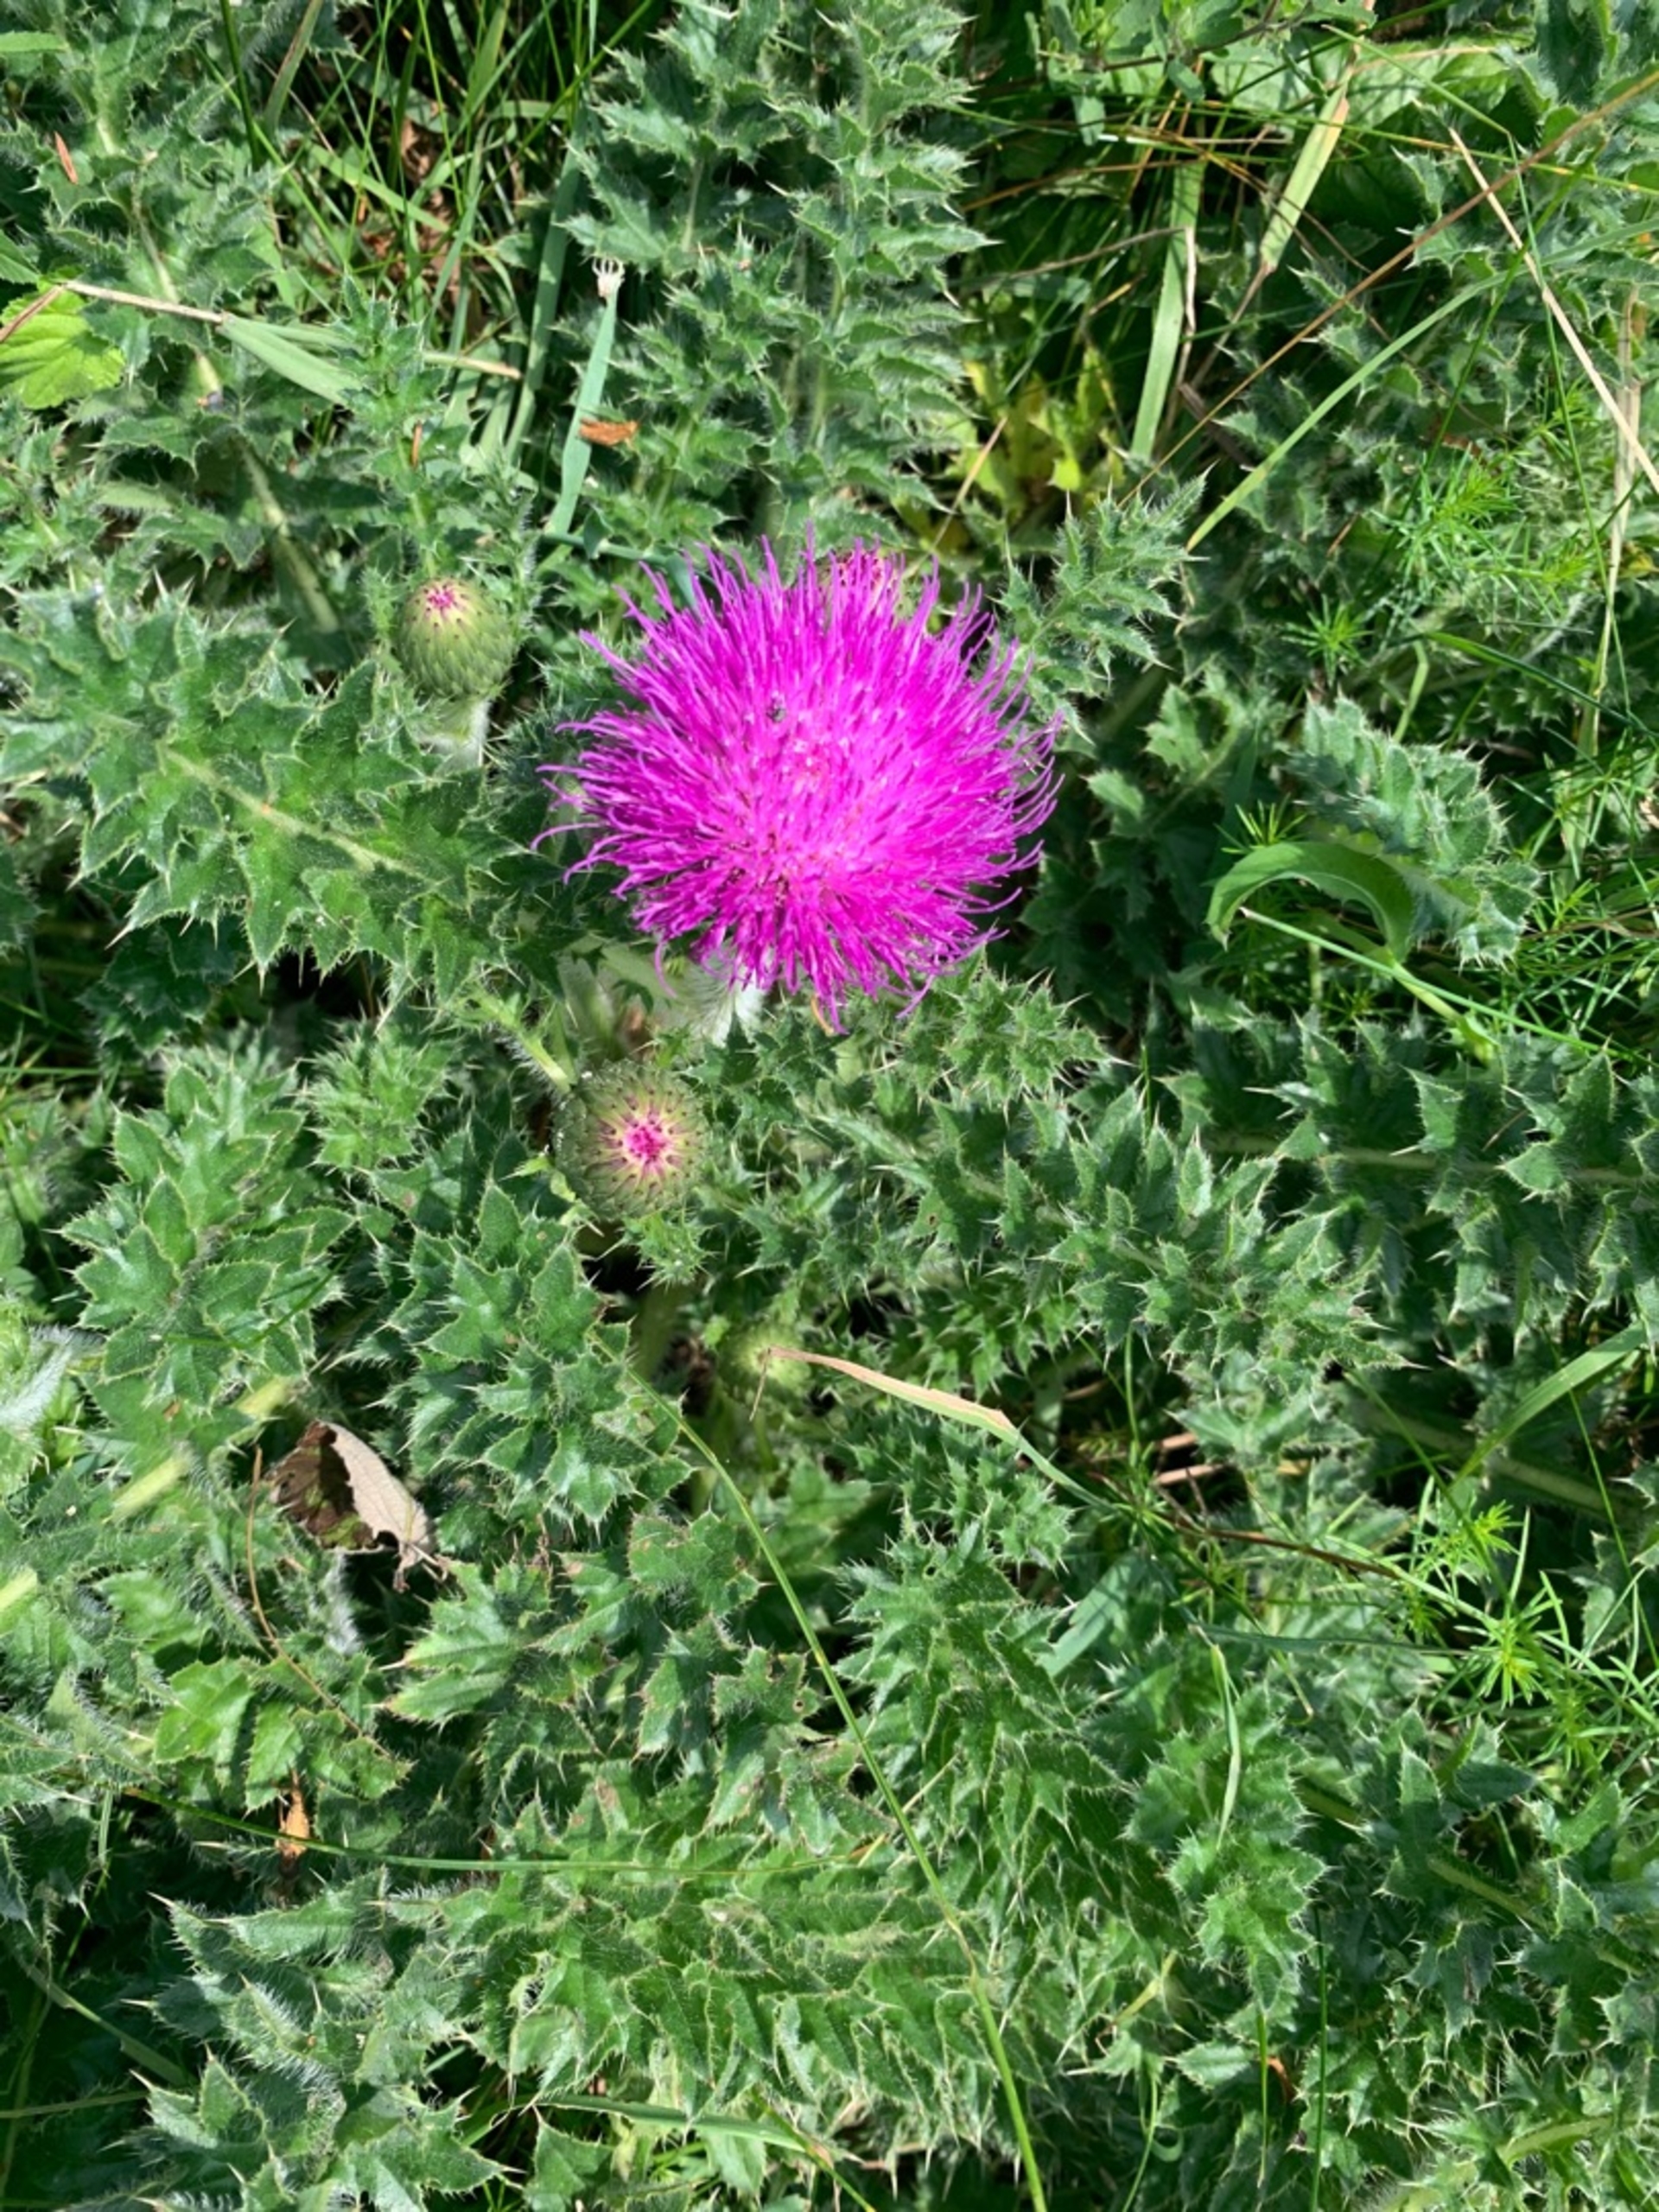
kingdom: Plantae
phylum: Tracheophyta
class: Magnoliopsida
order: Asterales
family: Asteraceae
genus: Cirsium
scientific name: Cirsium acaule
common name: Lav tidsel
